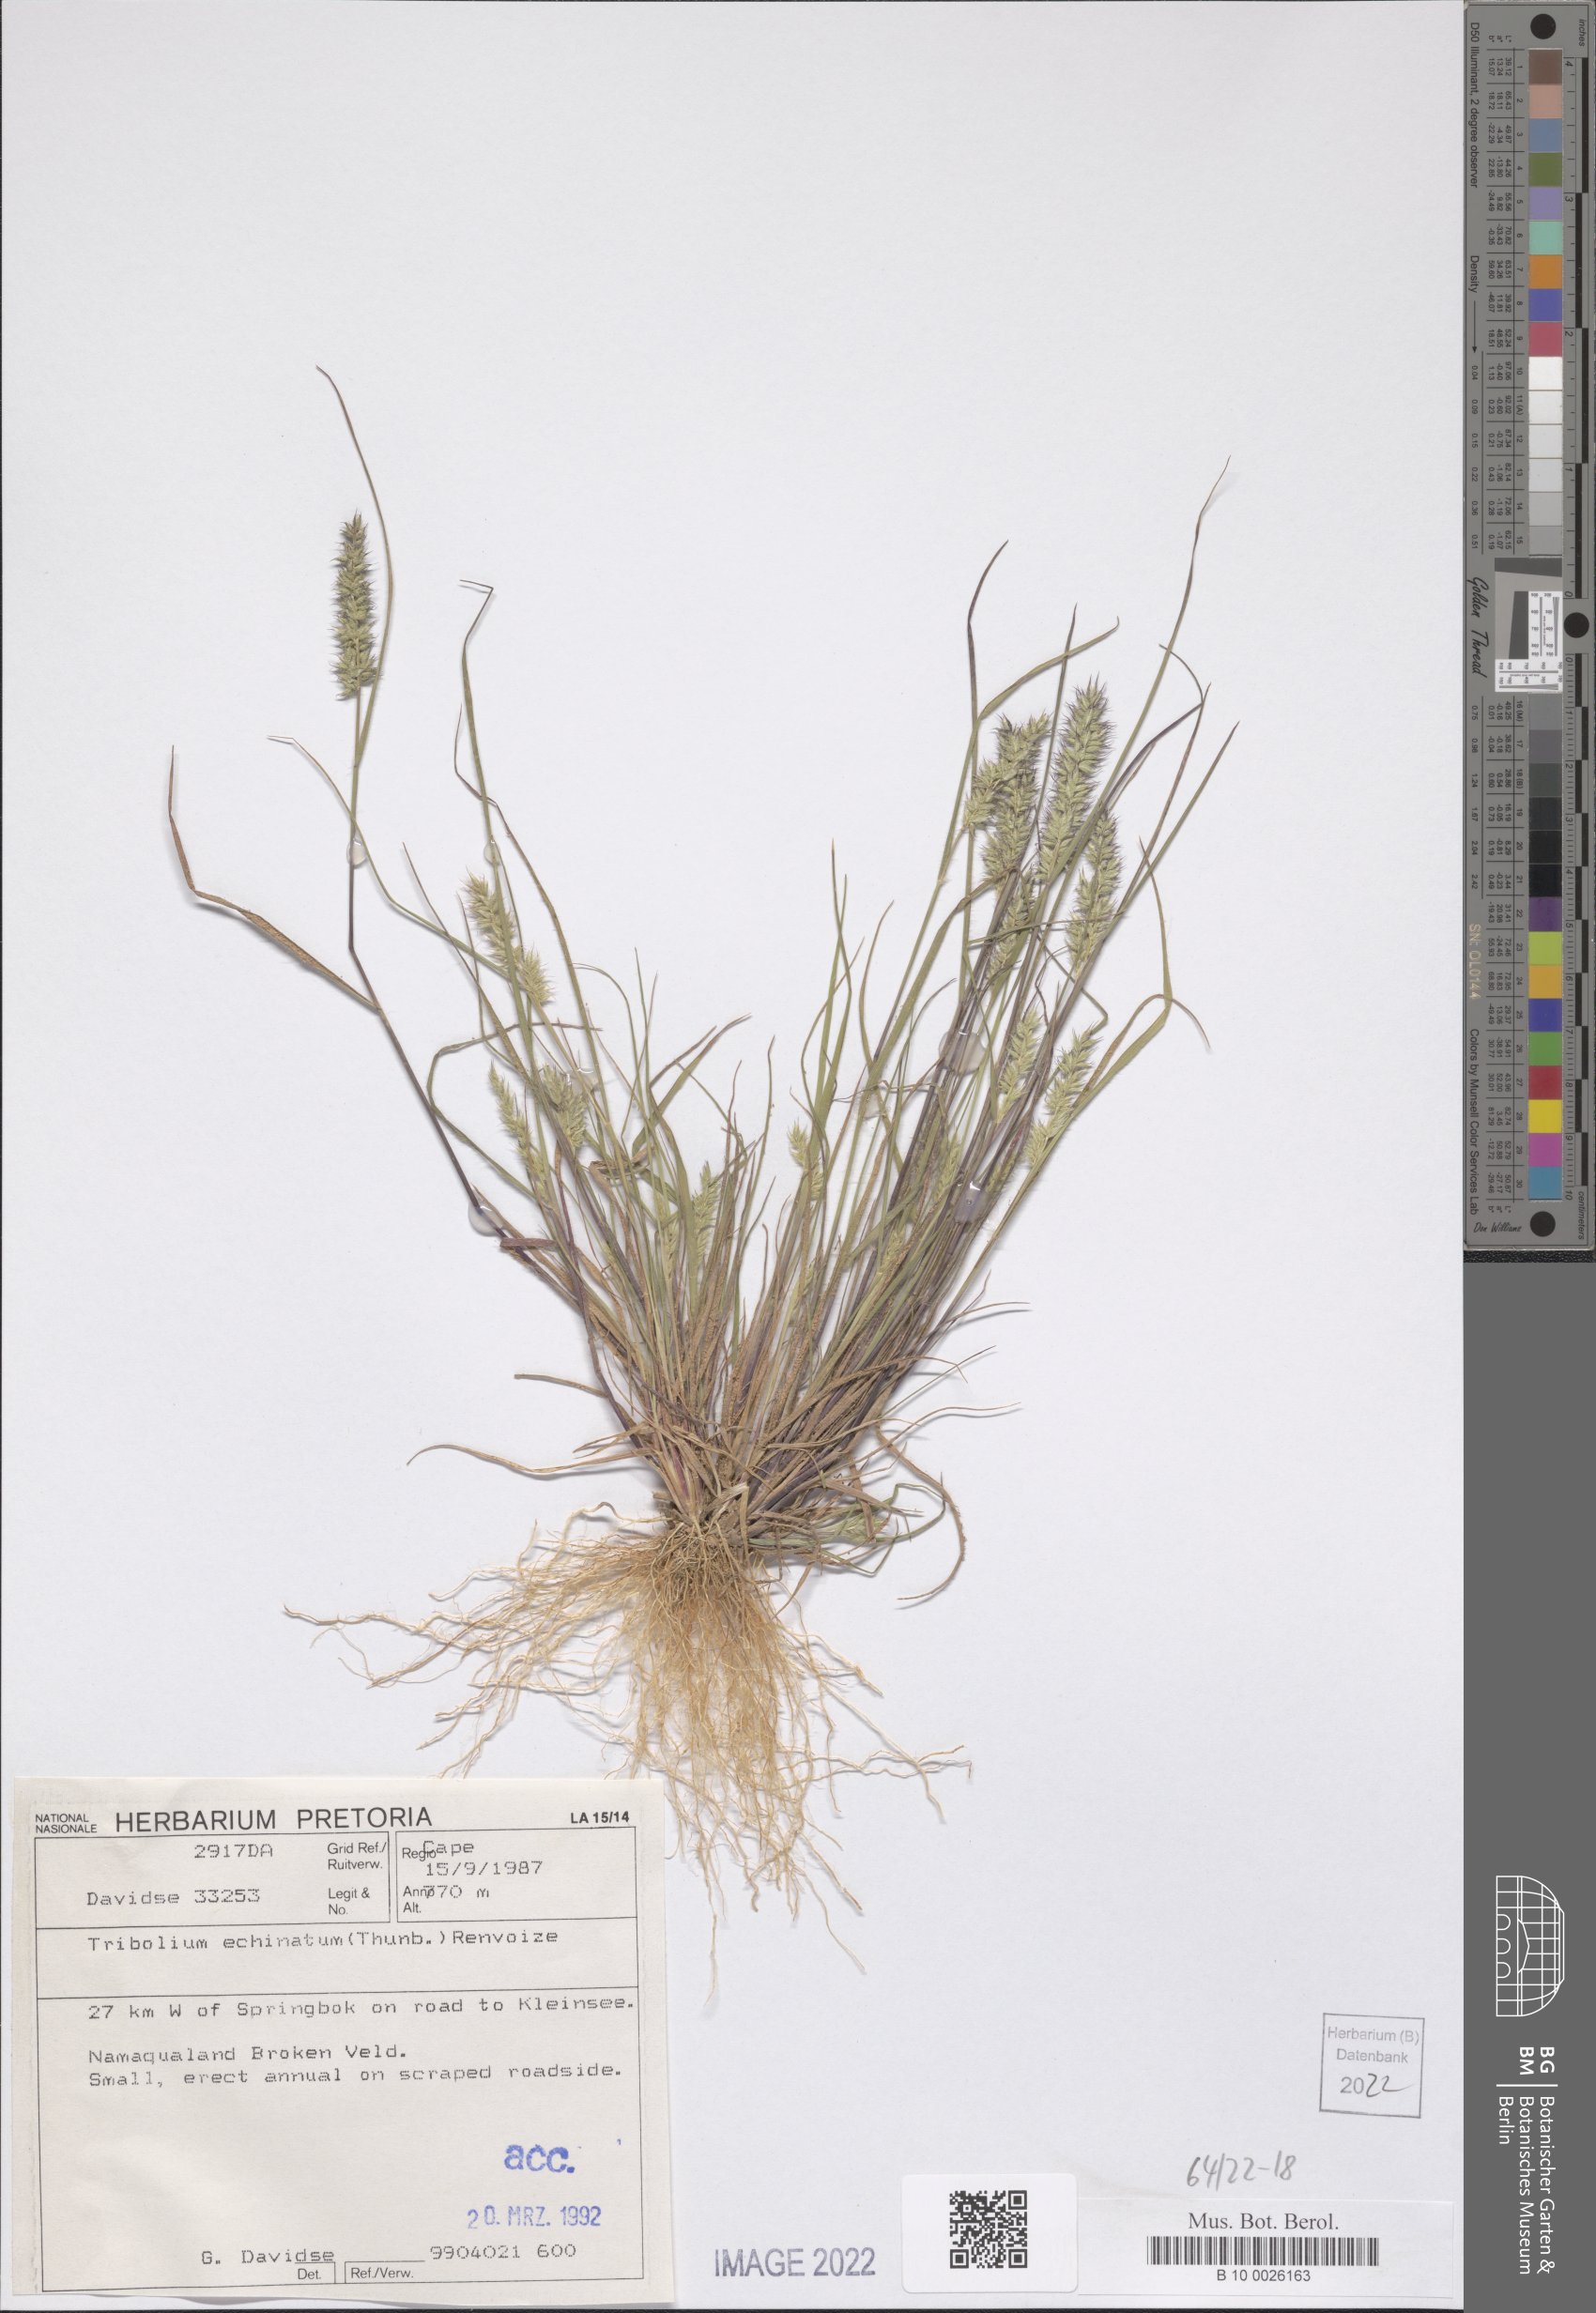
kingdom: Plantae
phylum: Tracheophyta
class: Liliopsida
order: Poales
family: Poaceae
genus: Tribolium
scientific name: Tribolium echinatum
